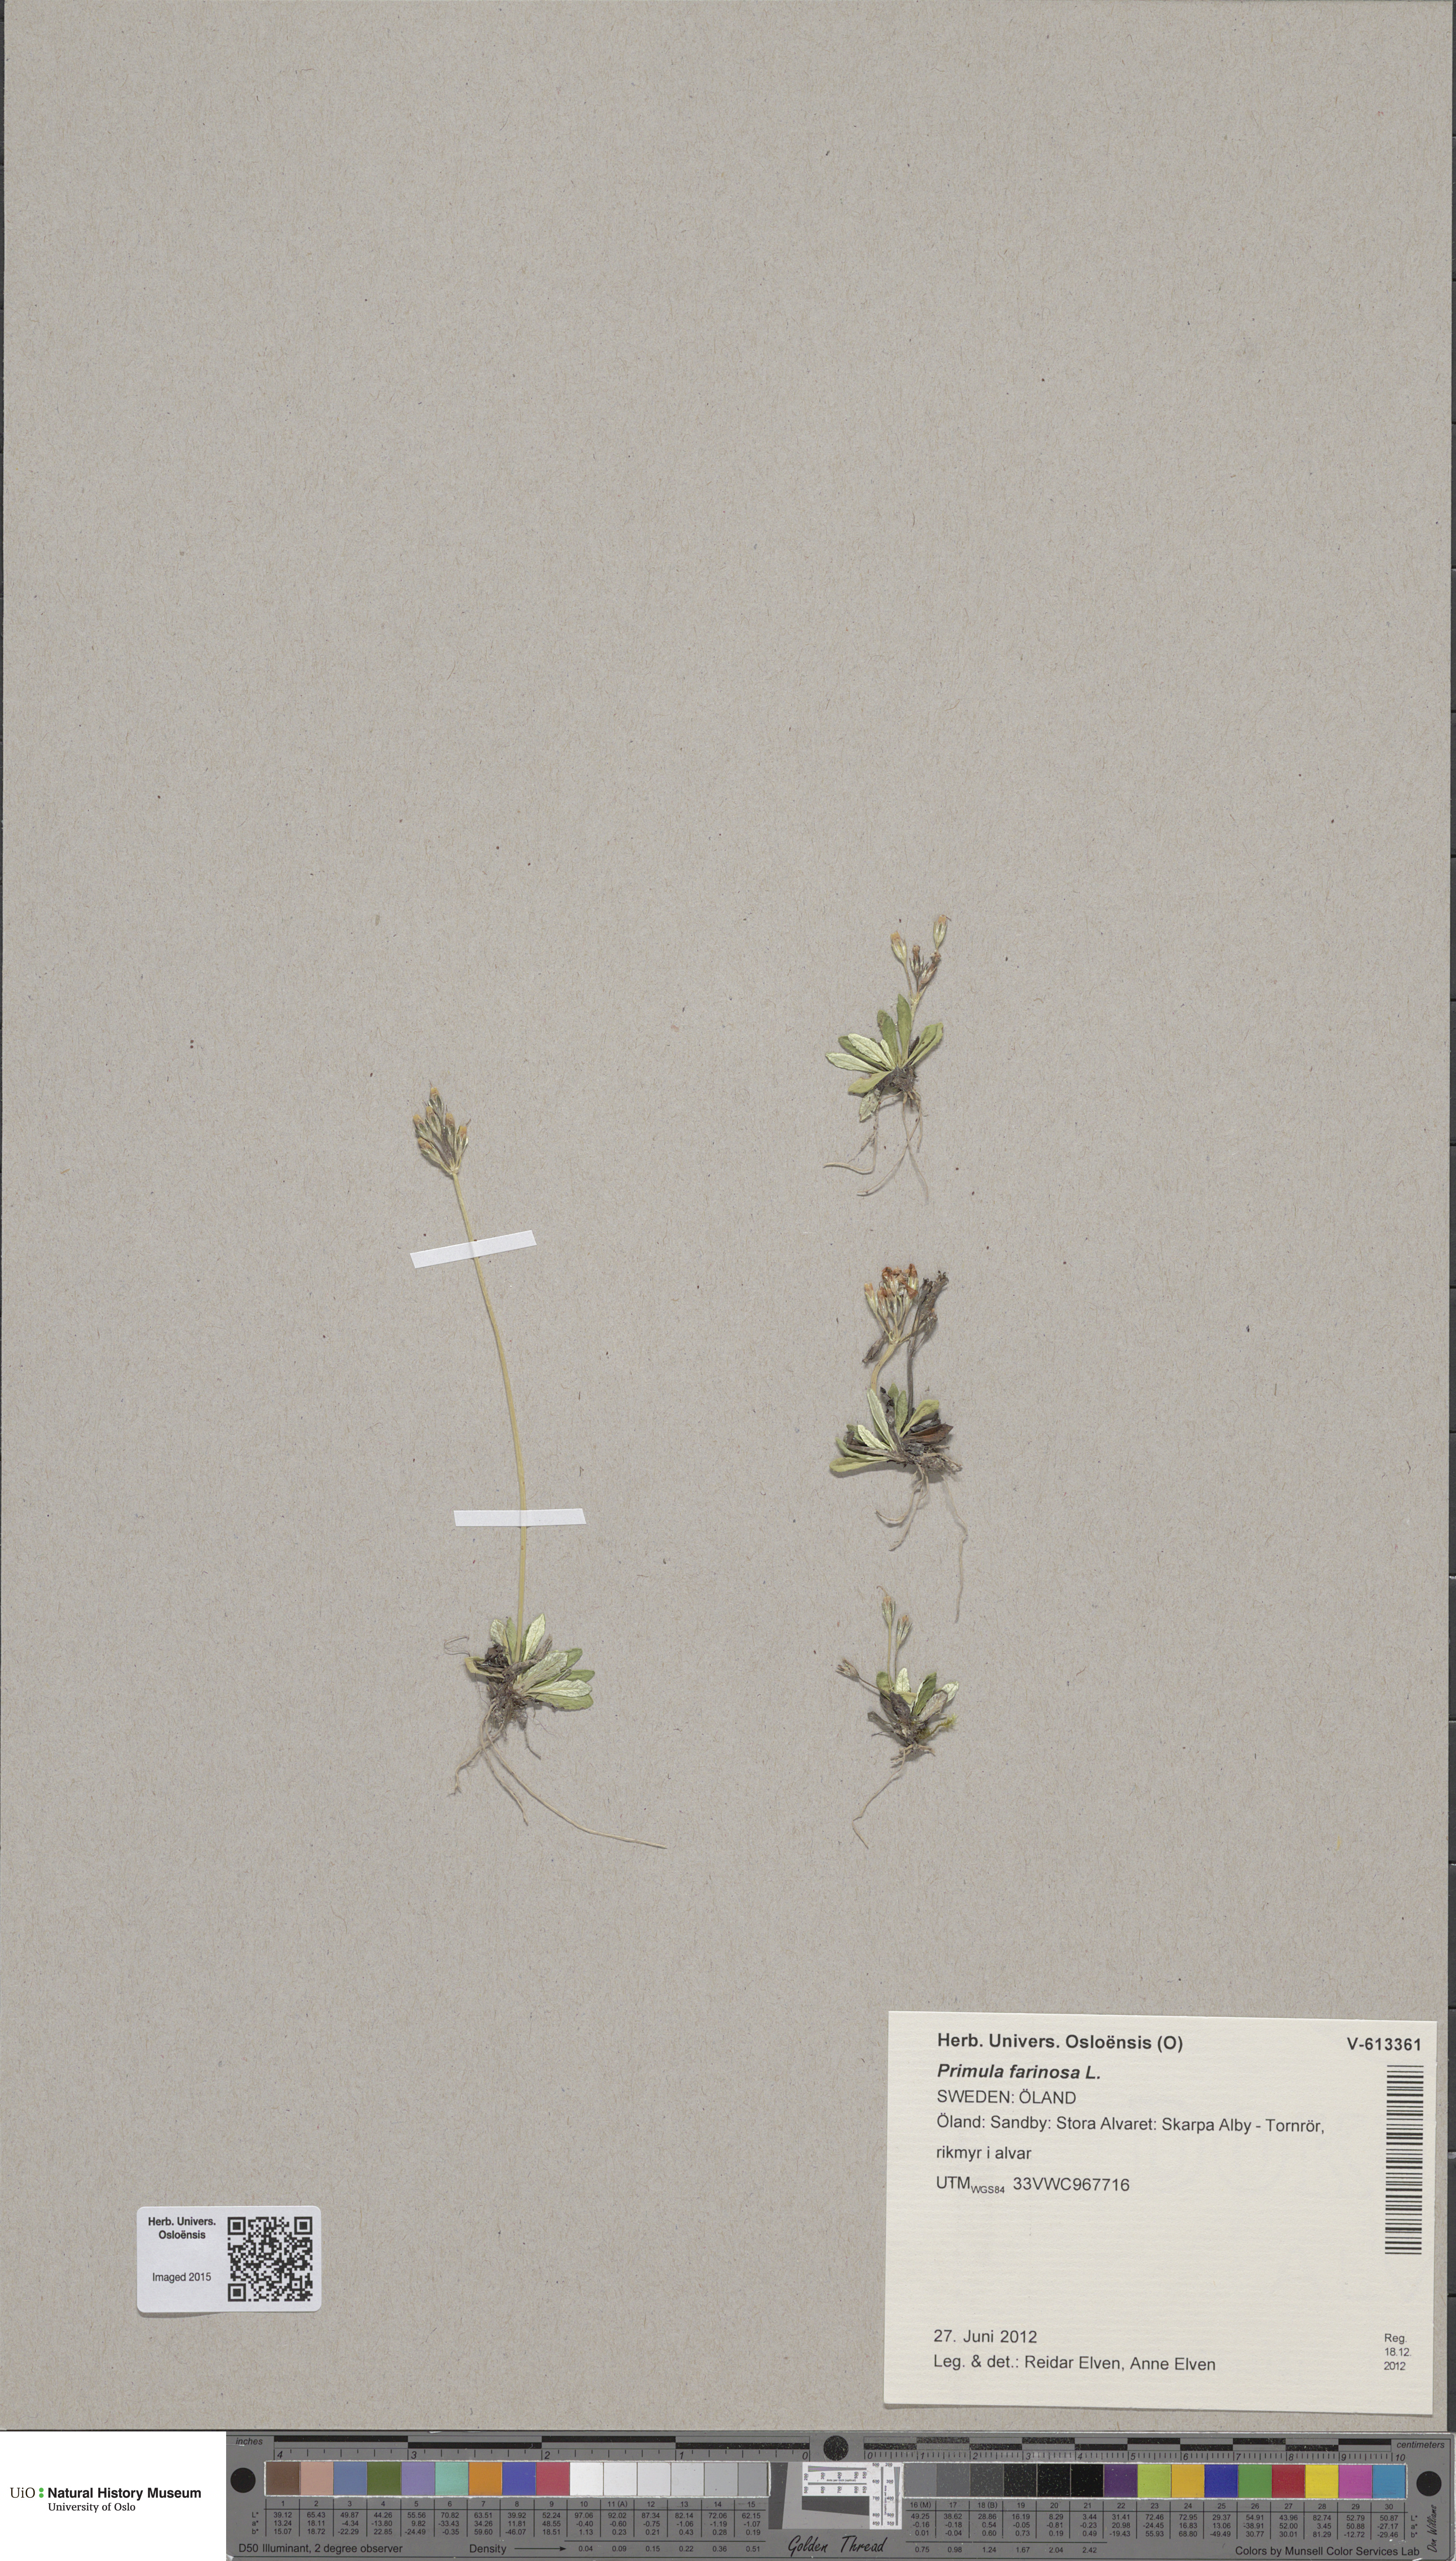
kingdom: Plantae
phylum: Tracheophyta
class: Magnoliopsida
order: Ericales
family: Primulaceae
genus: Primula
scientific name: Primula farinosa
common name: Bird's-eye primrose
